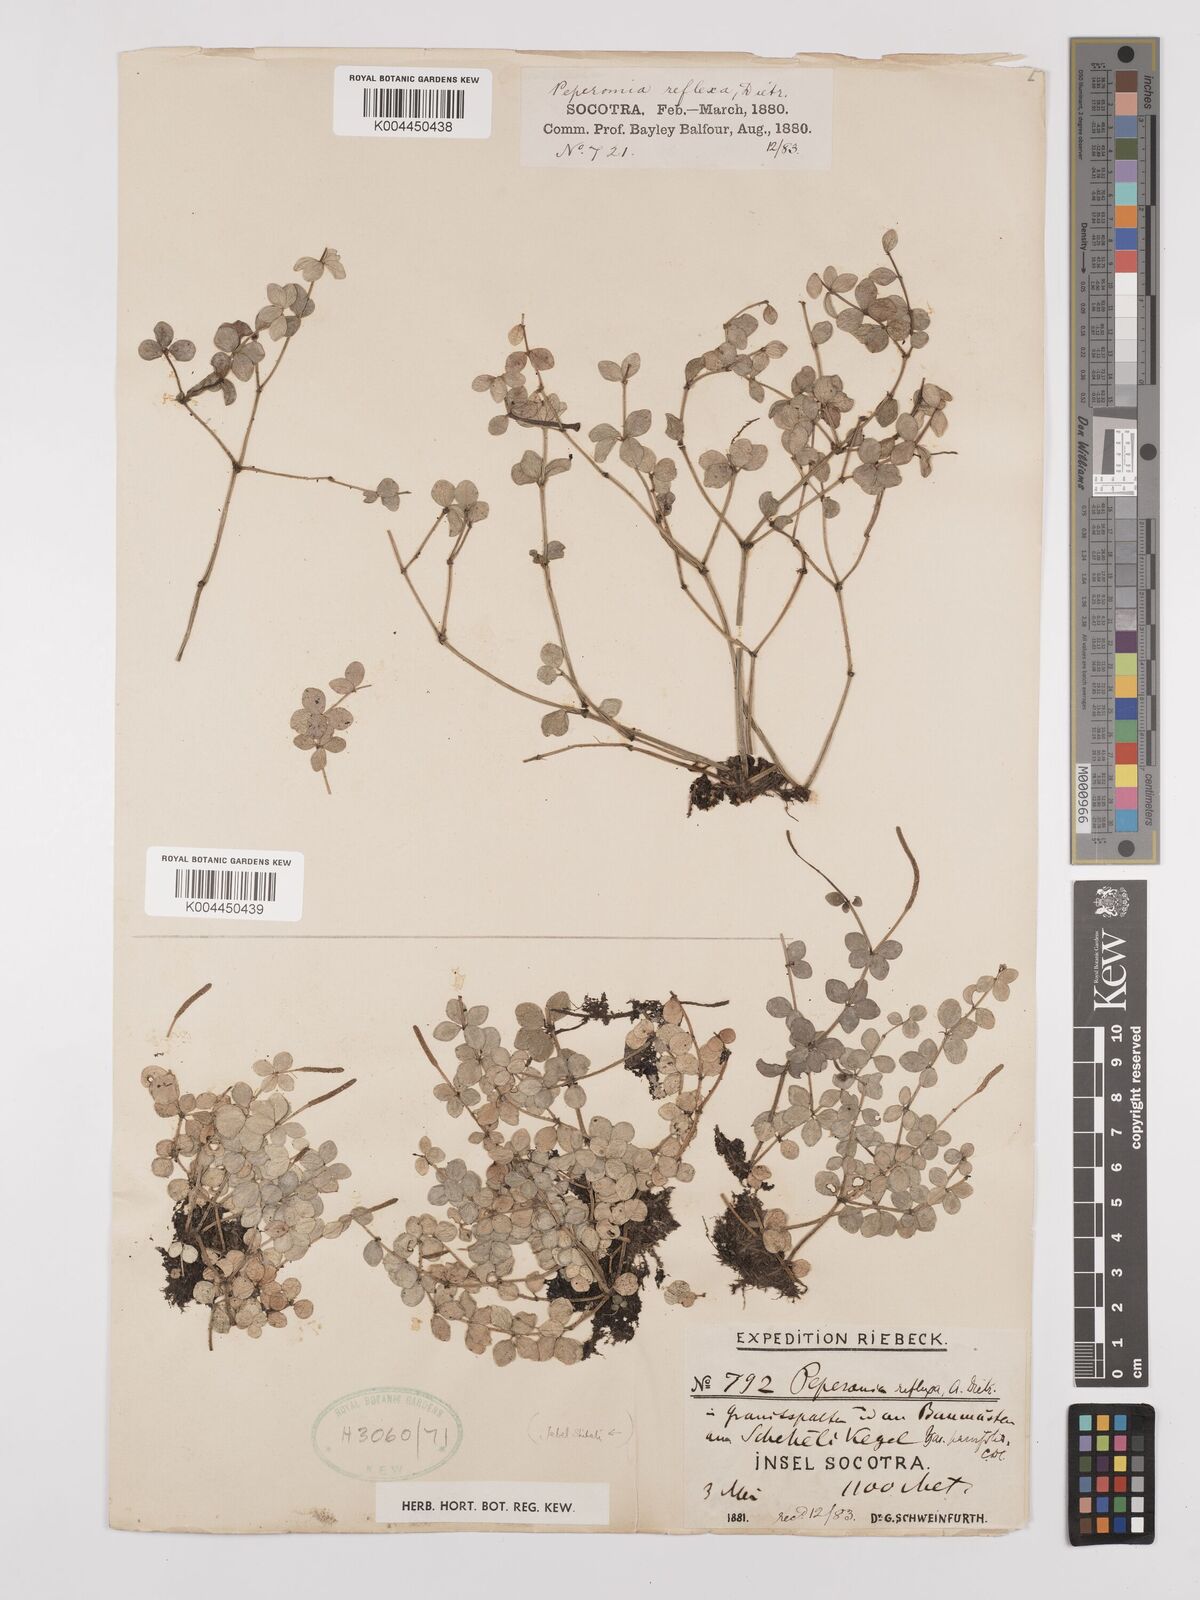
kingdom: Plantae
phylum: Tracheophyta
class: Magnoliopsida
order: Piperales
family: Piperaceae
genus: Peperomia
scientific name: Peperomia tetraphylla
